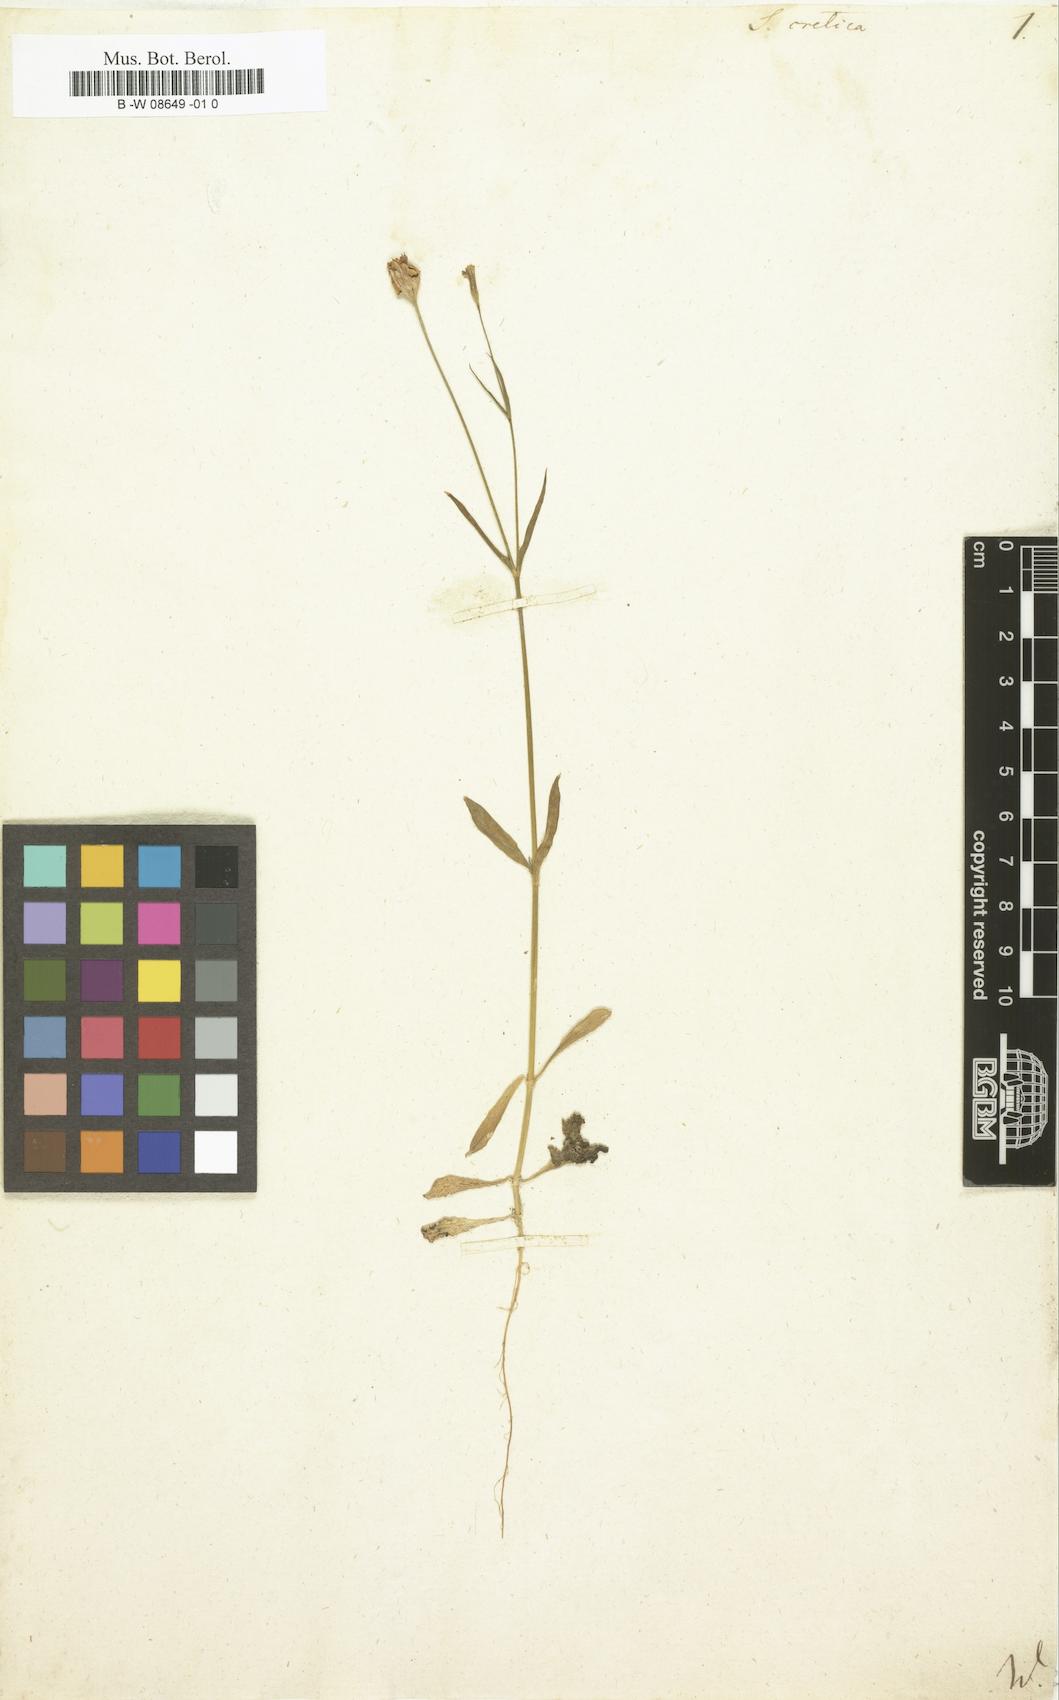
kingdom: Plantae
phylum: Tracheophyta
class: Magnoliopsida
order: Caryophyllales
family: Caryophyllaceae
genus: Silene
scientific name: Silene cretica
